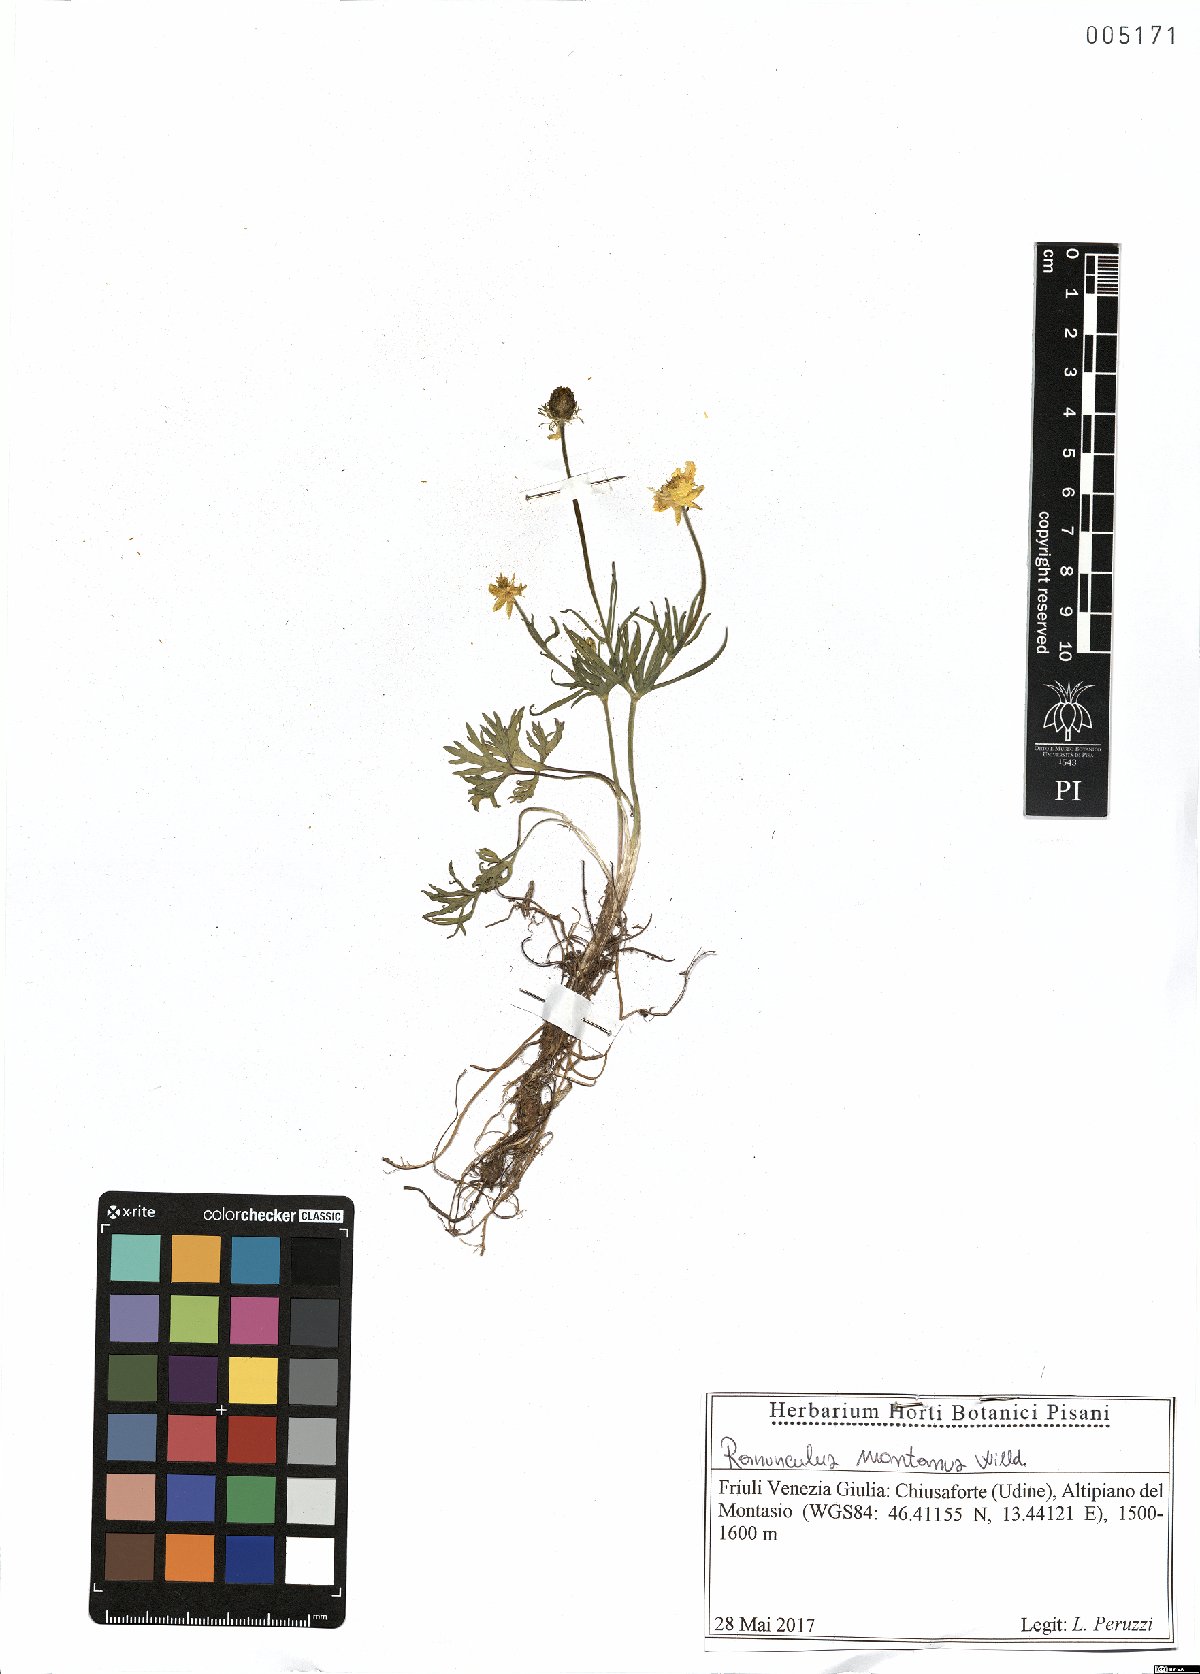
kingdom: Plantae
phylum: Tracheophyta
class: Magnoliopsida
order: Ranunculales
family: Ranunculaceae
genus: Ranunculus
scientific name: Ranunculus montanus
